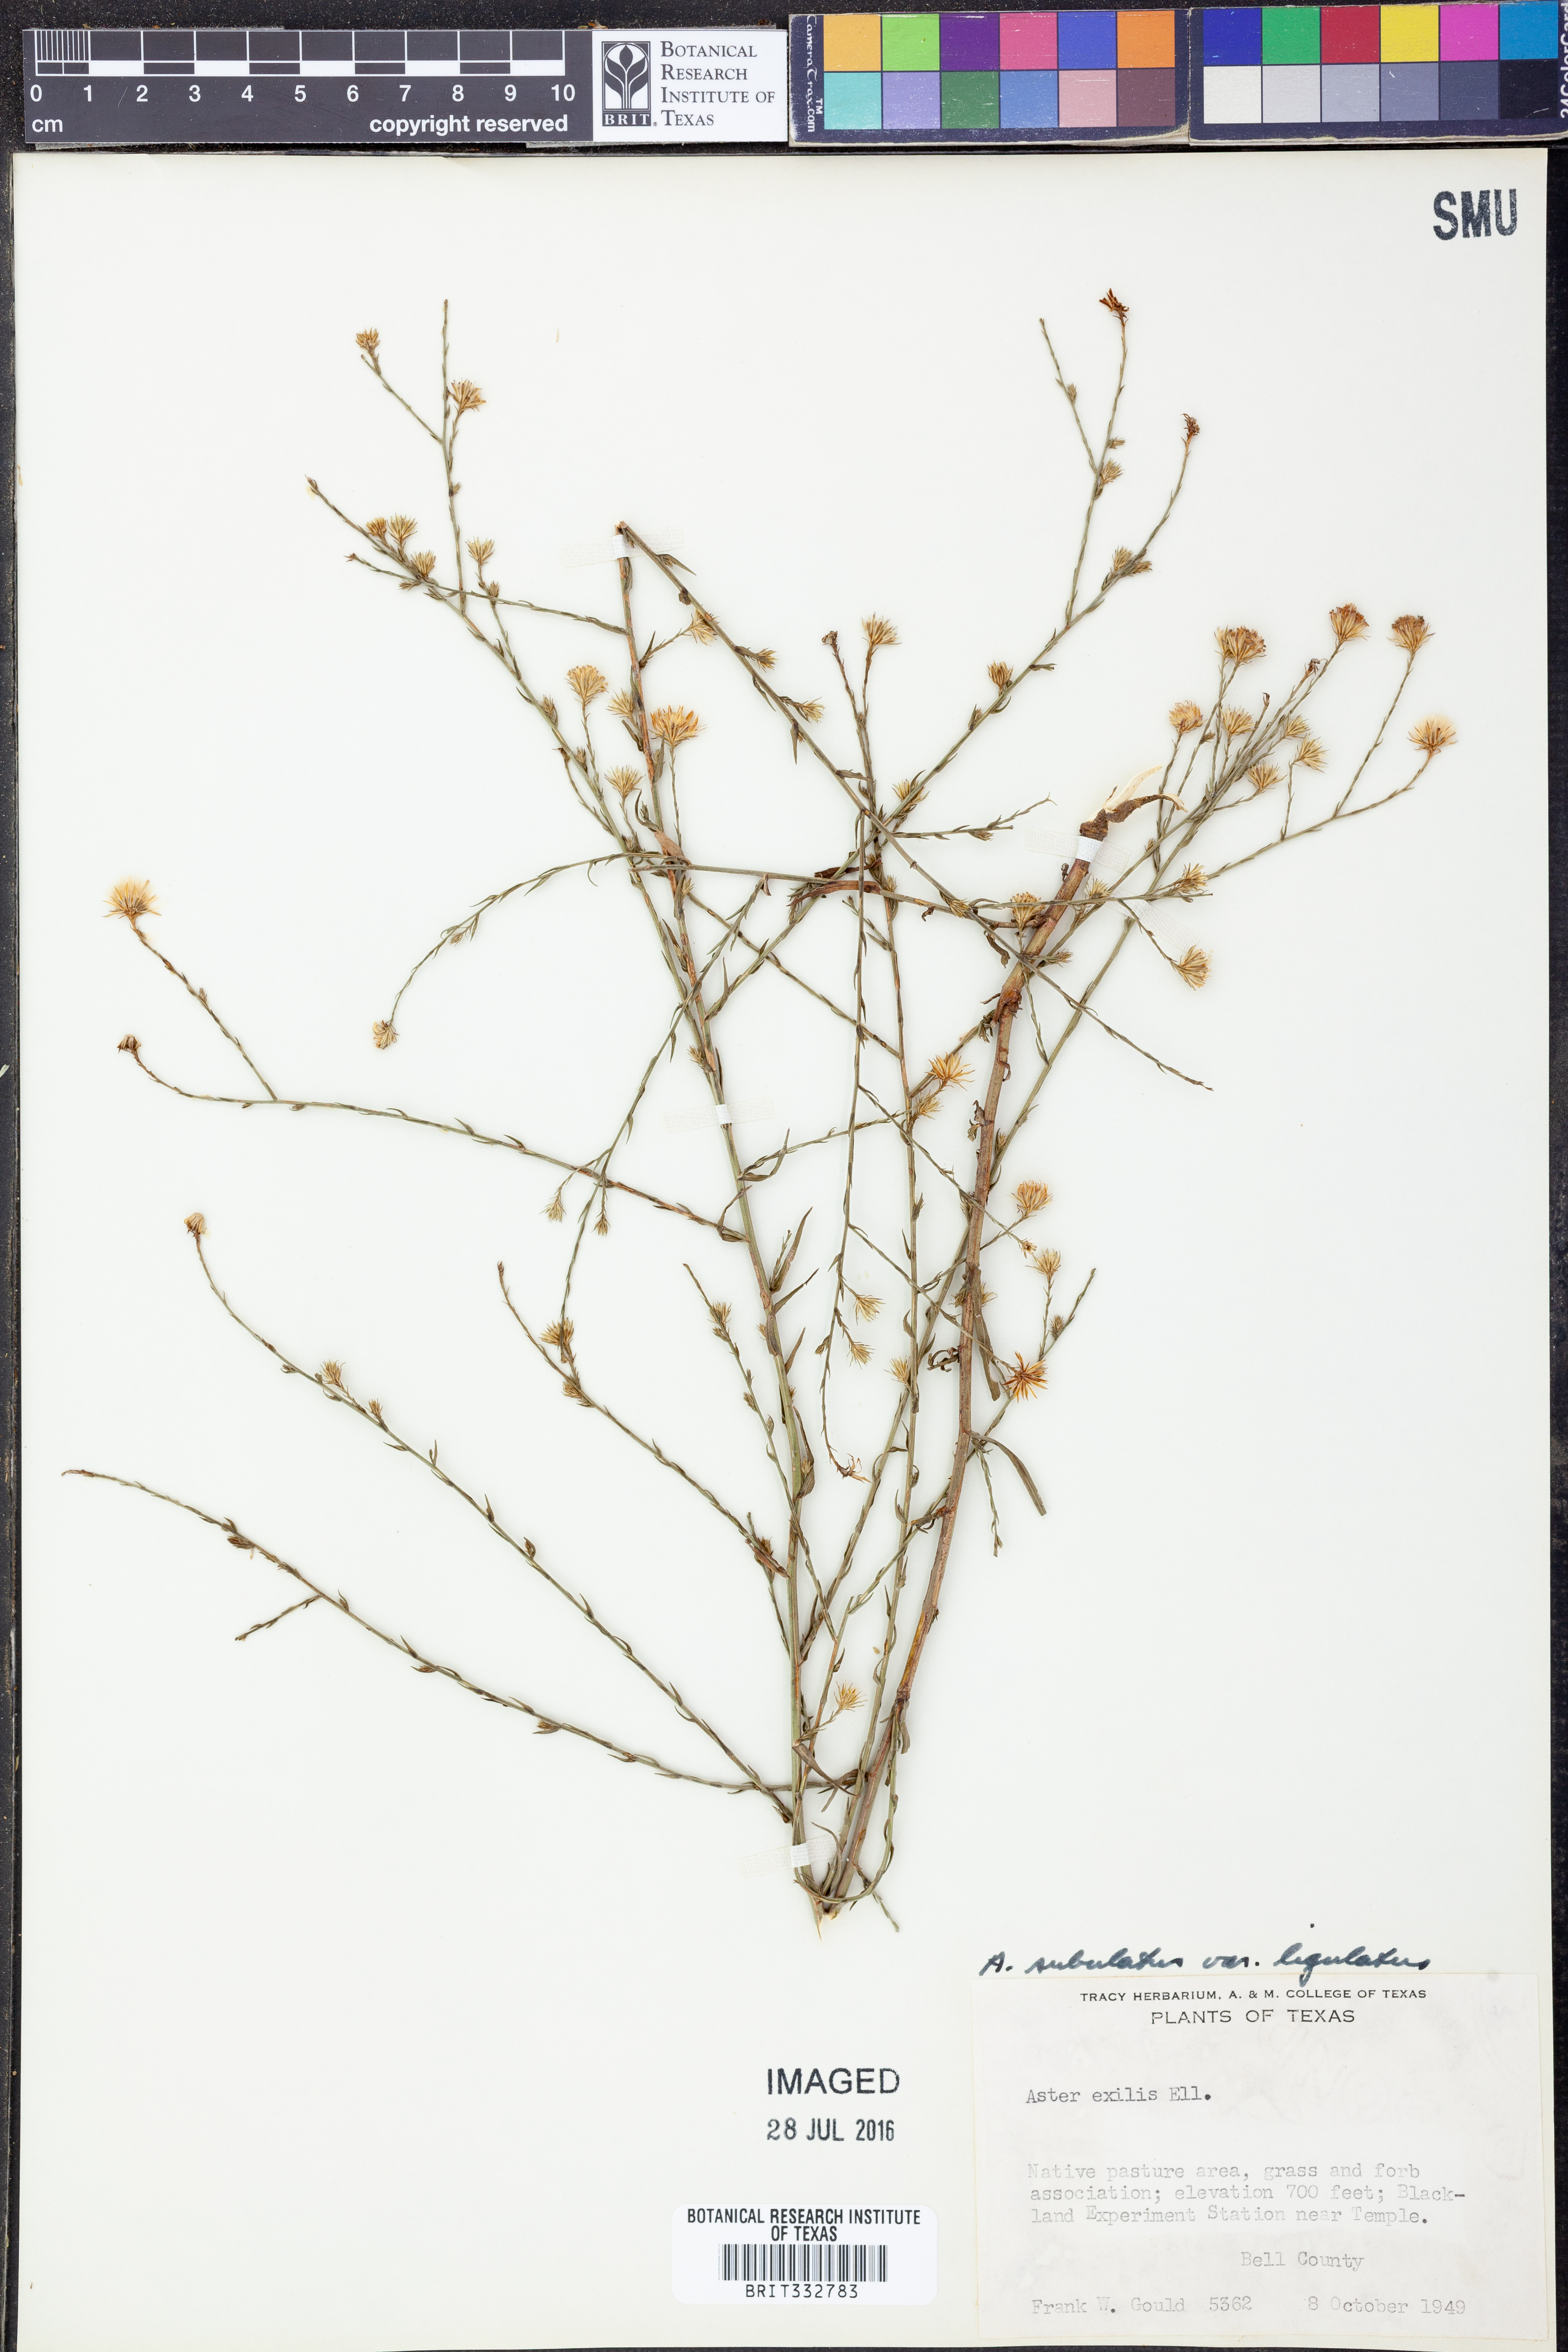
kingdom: Plantae
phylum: Tracheophyta
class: Magnoliopsida
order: Asterales
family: Asteraceae
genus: Symphyotrichum
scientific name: Symphyotrichum divaricatum
